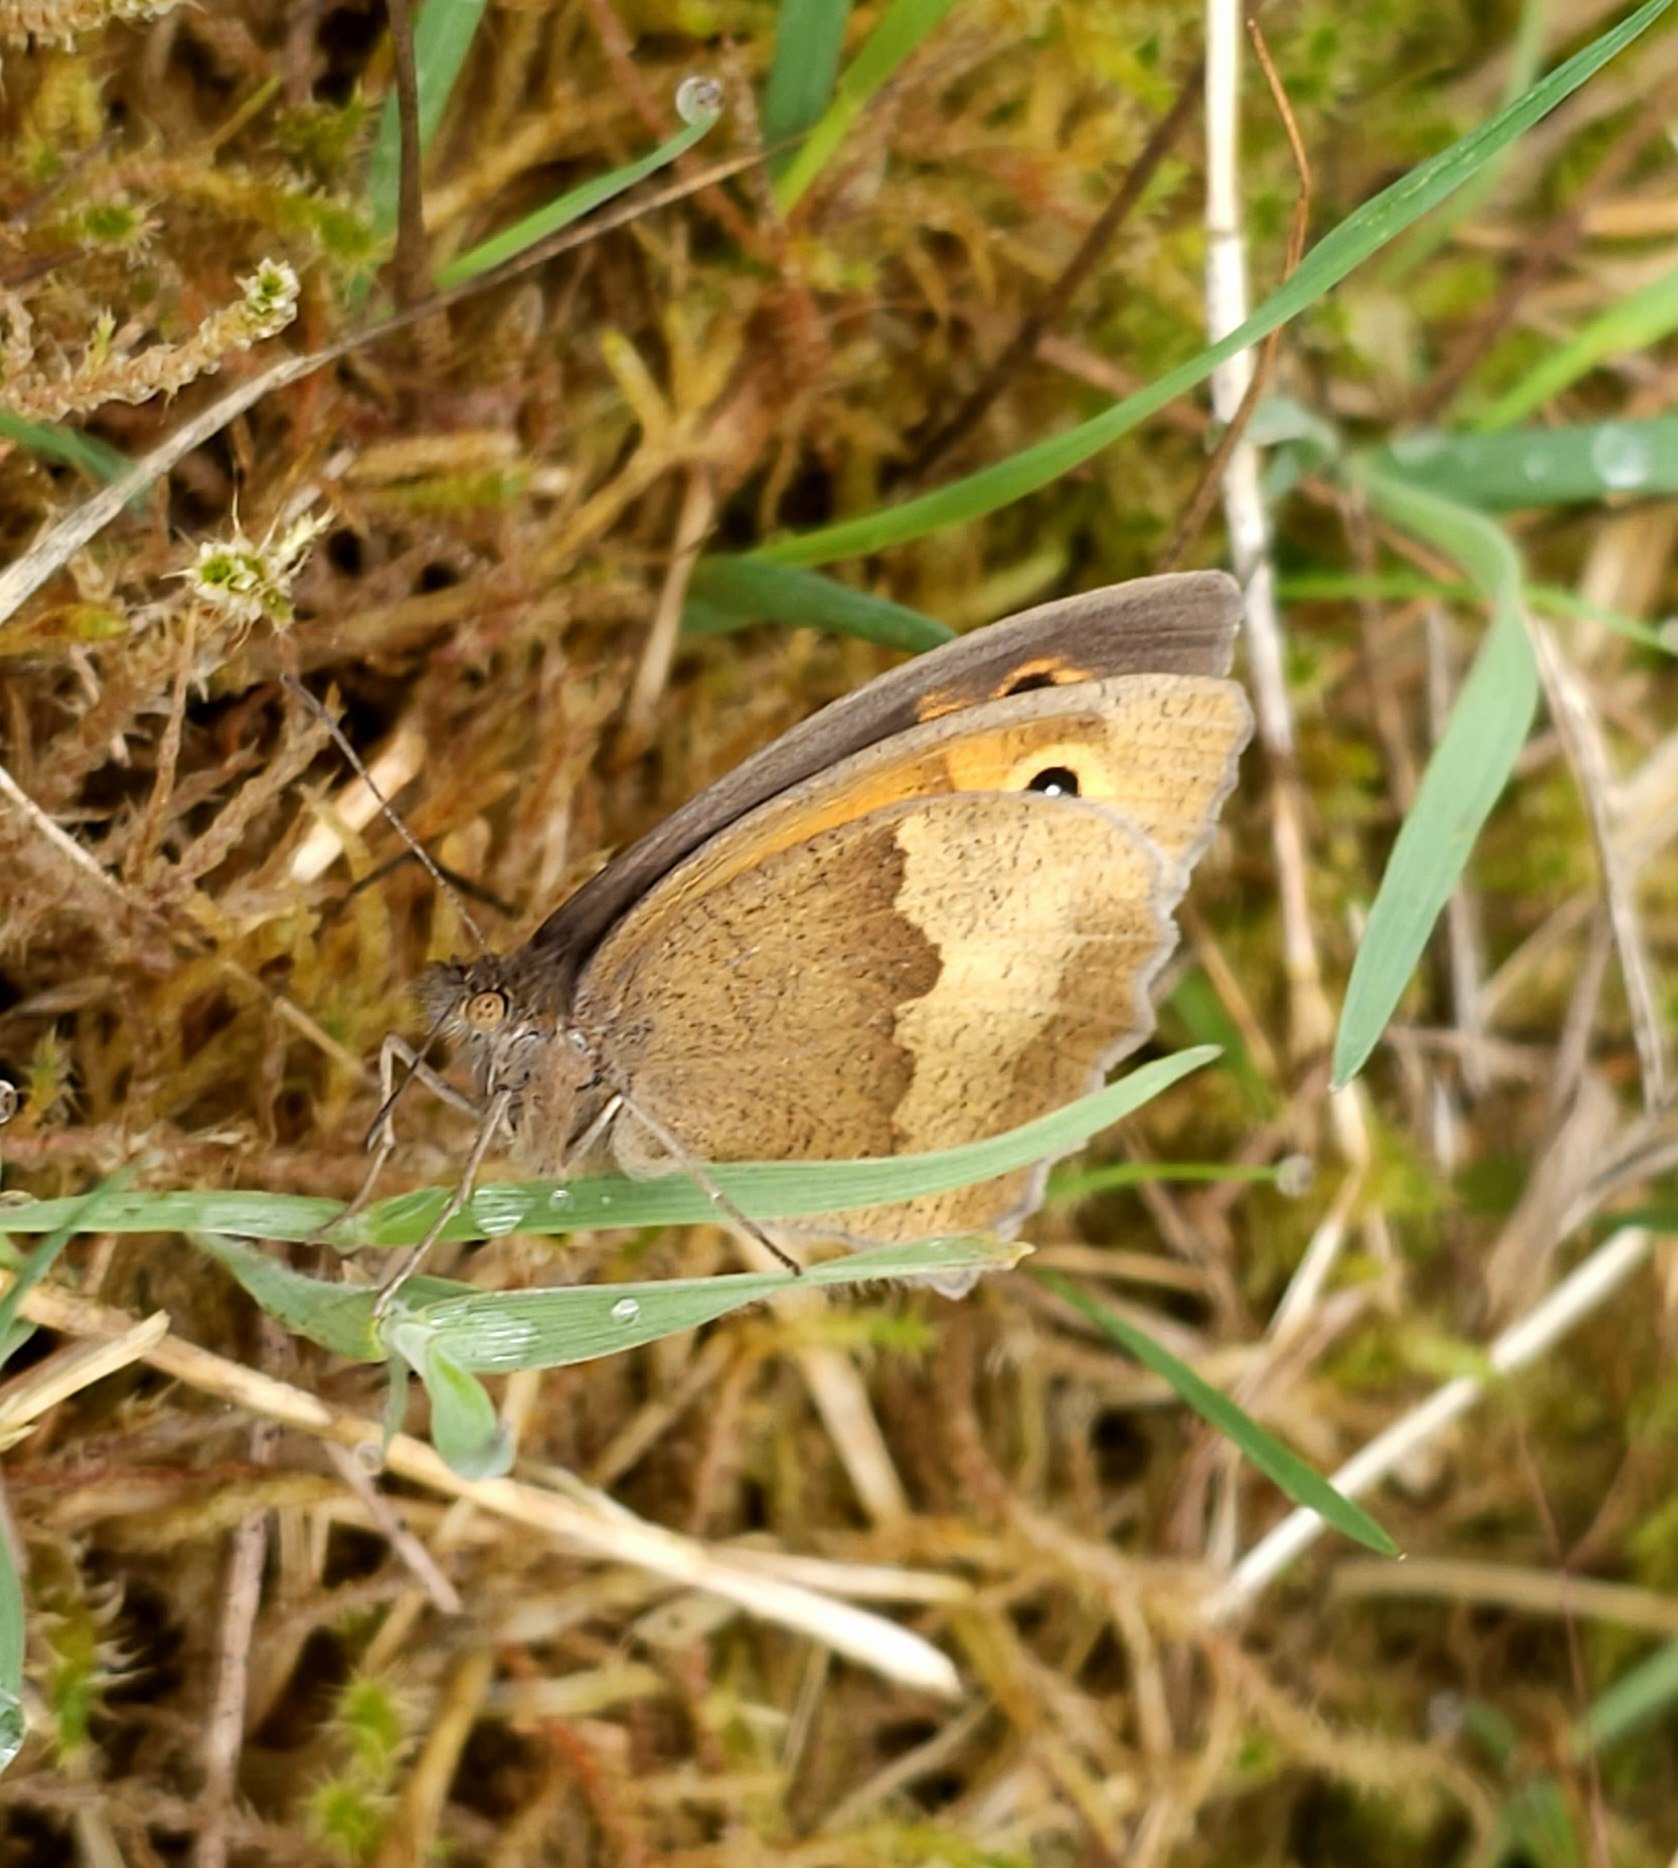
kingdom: Animalia
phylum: Arthropoda
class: Insecta
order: Lepidoptera
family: Nymphalidae
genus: Maniola
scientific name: Maniola jurtina
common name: Græsrandøje
